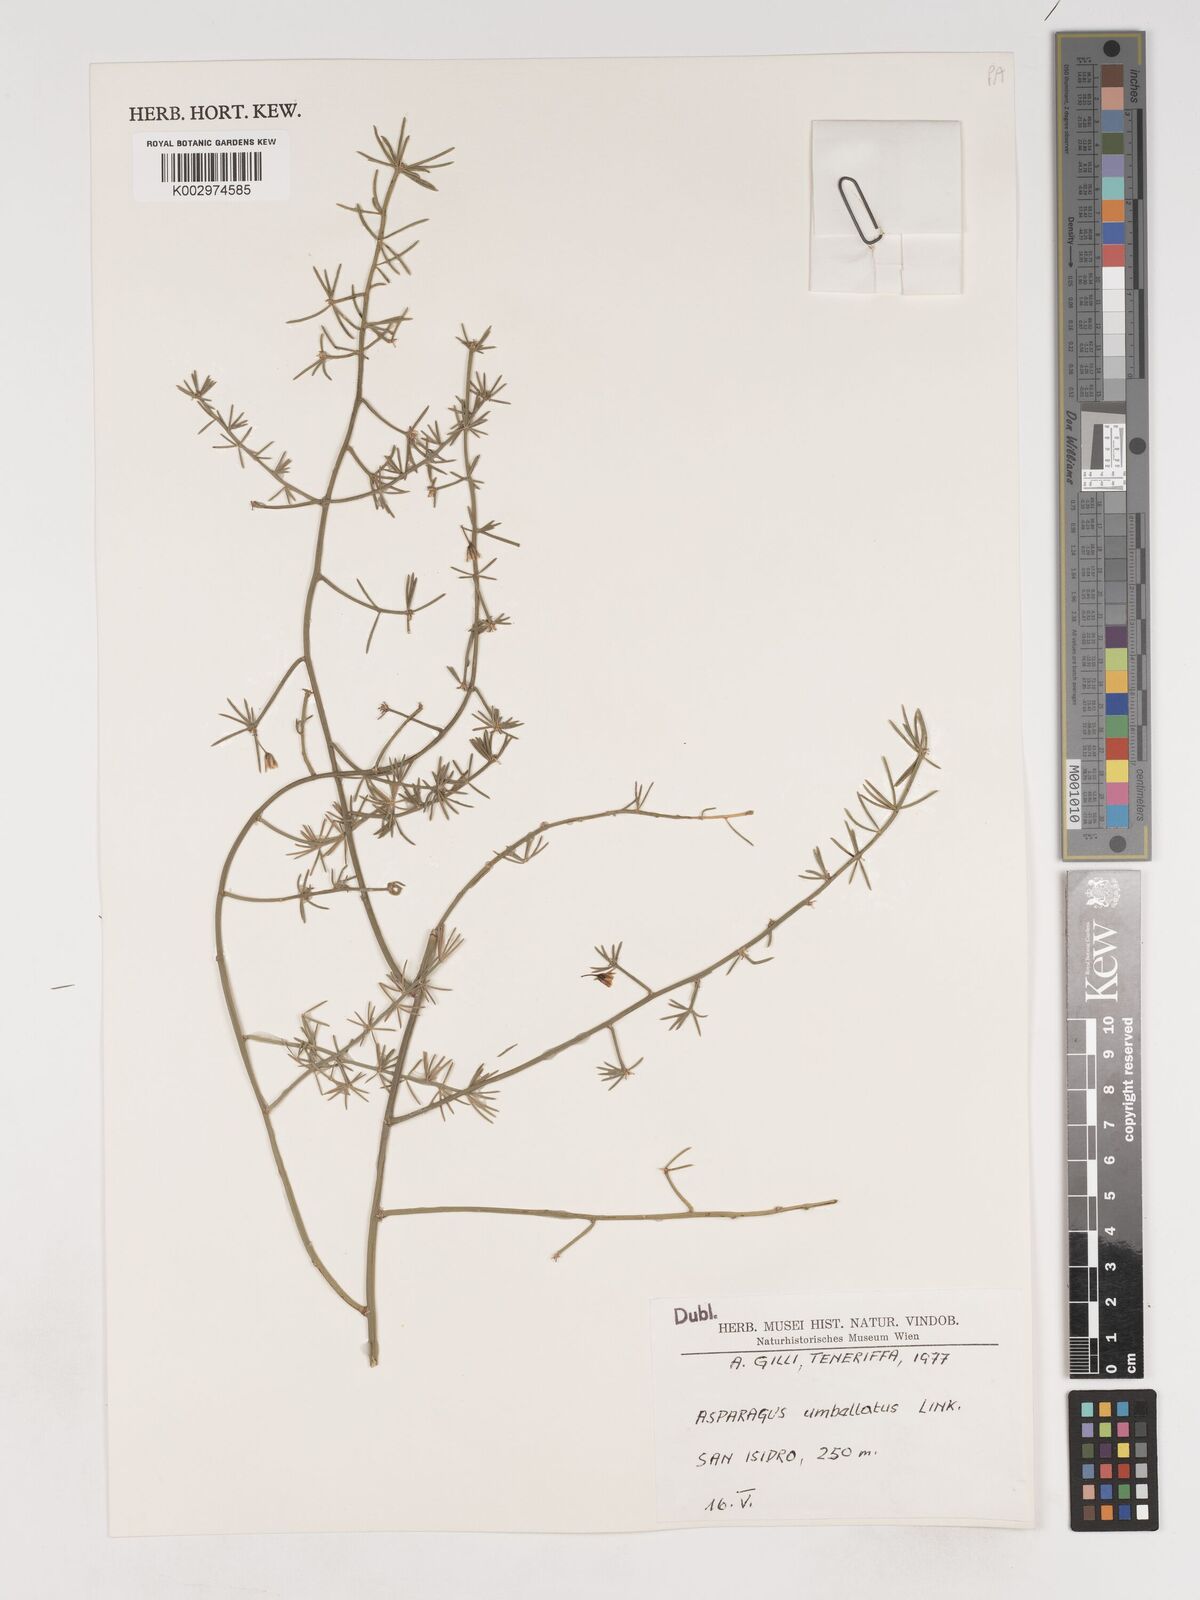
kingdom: Plantae
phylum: Tracheophyta
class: Liliopsida
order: Asparagales
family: Asparagaceae
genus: Asparagus
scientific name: Asparagus umbellatus
